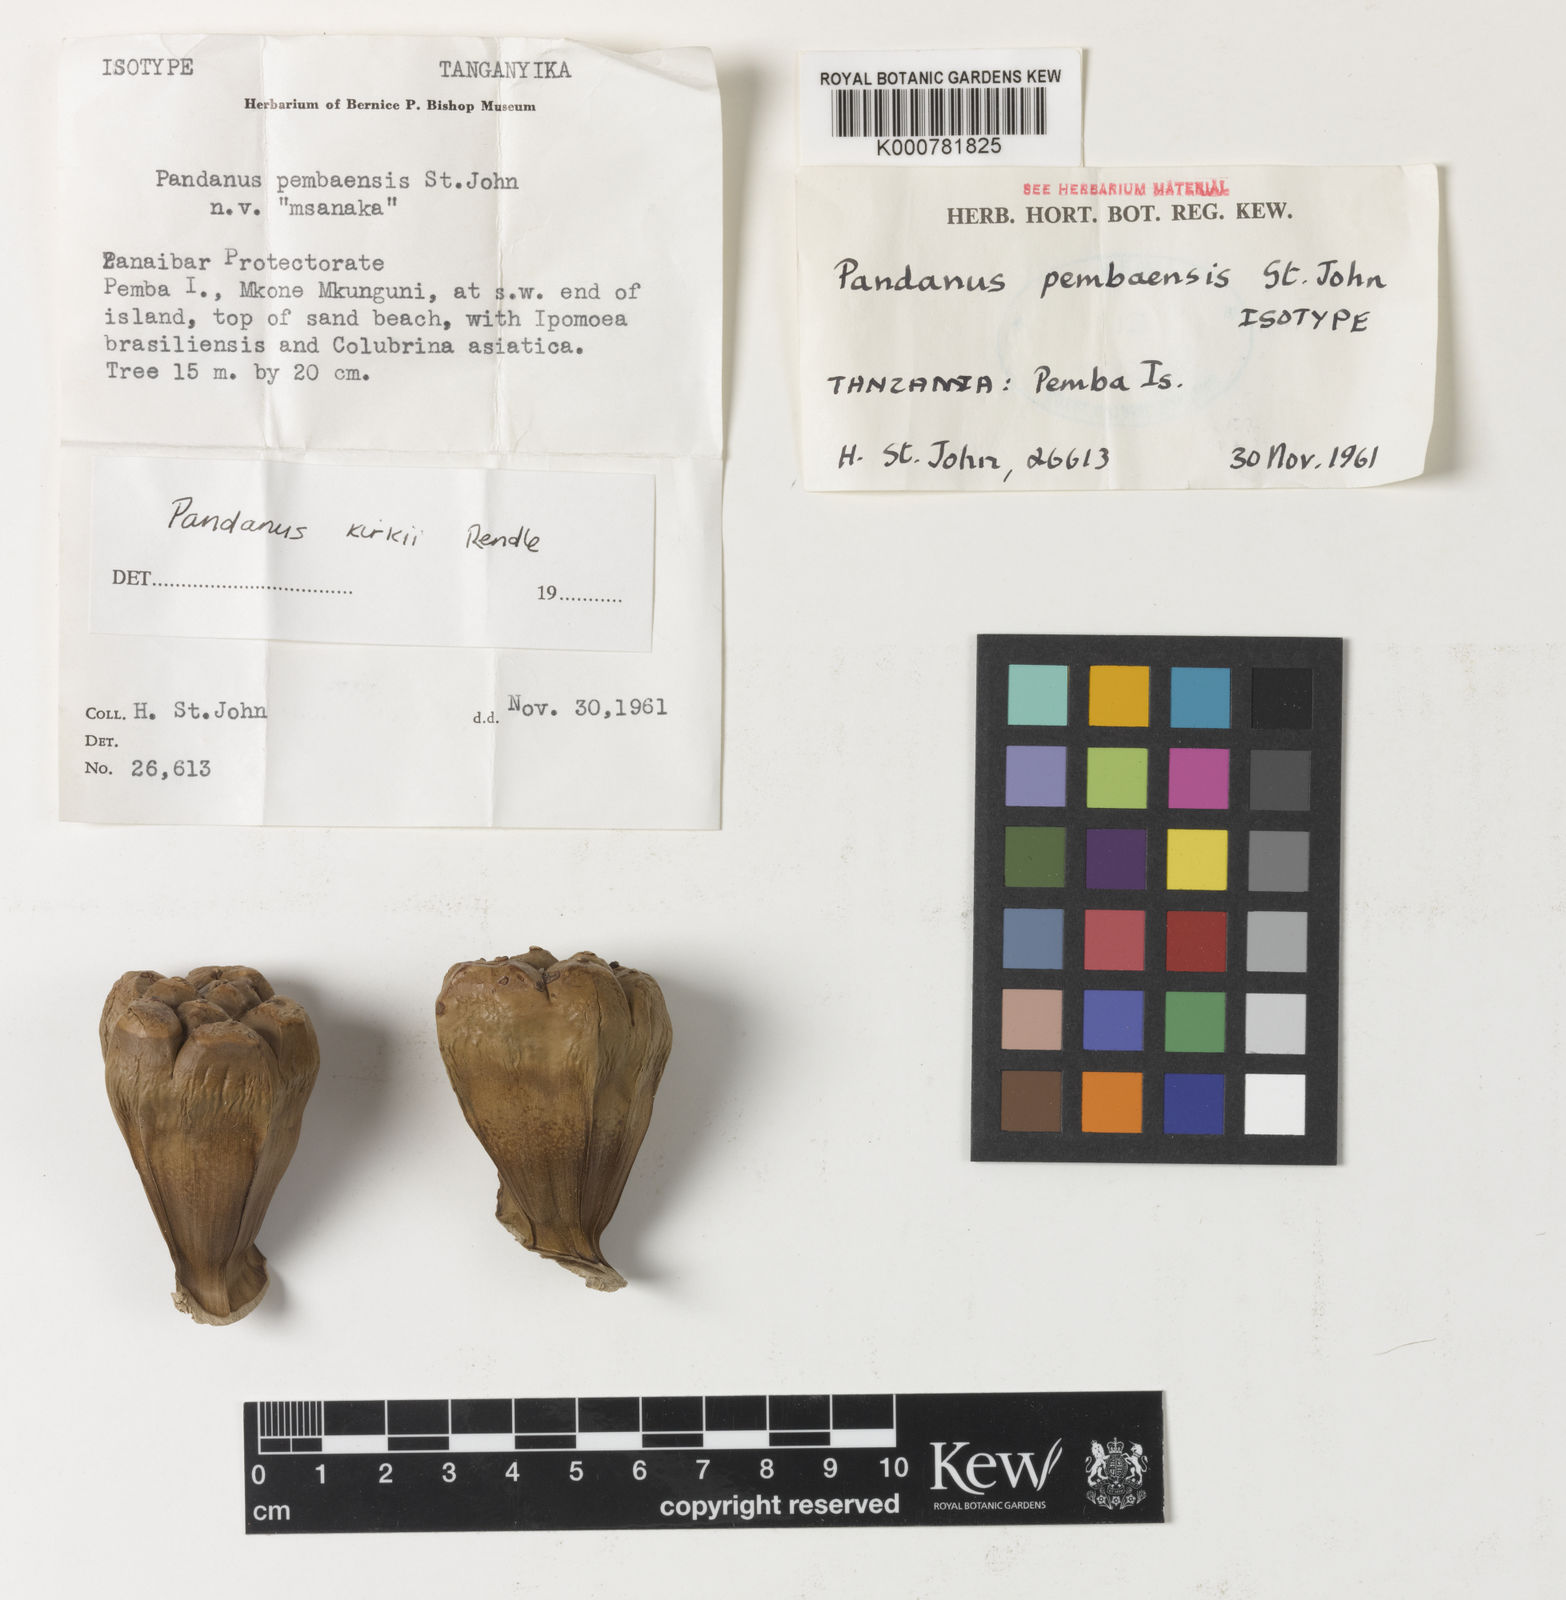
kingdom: Plantae
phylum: Tracheophyta
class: Liliopsida
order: Pandanales
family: Pandanaceae
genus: Pandanus
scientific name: Pandanus kirkii
